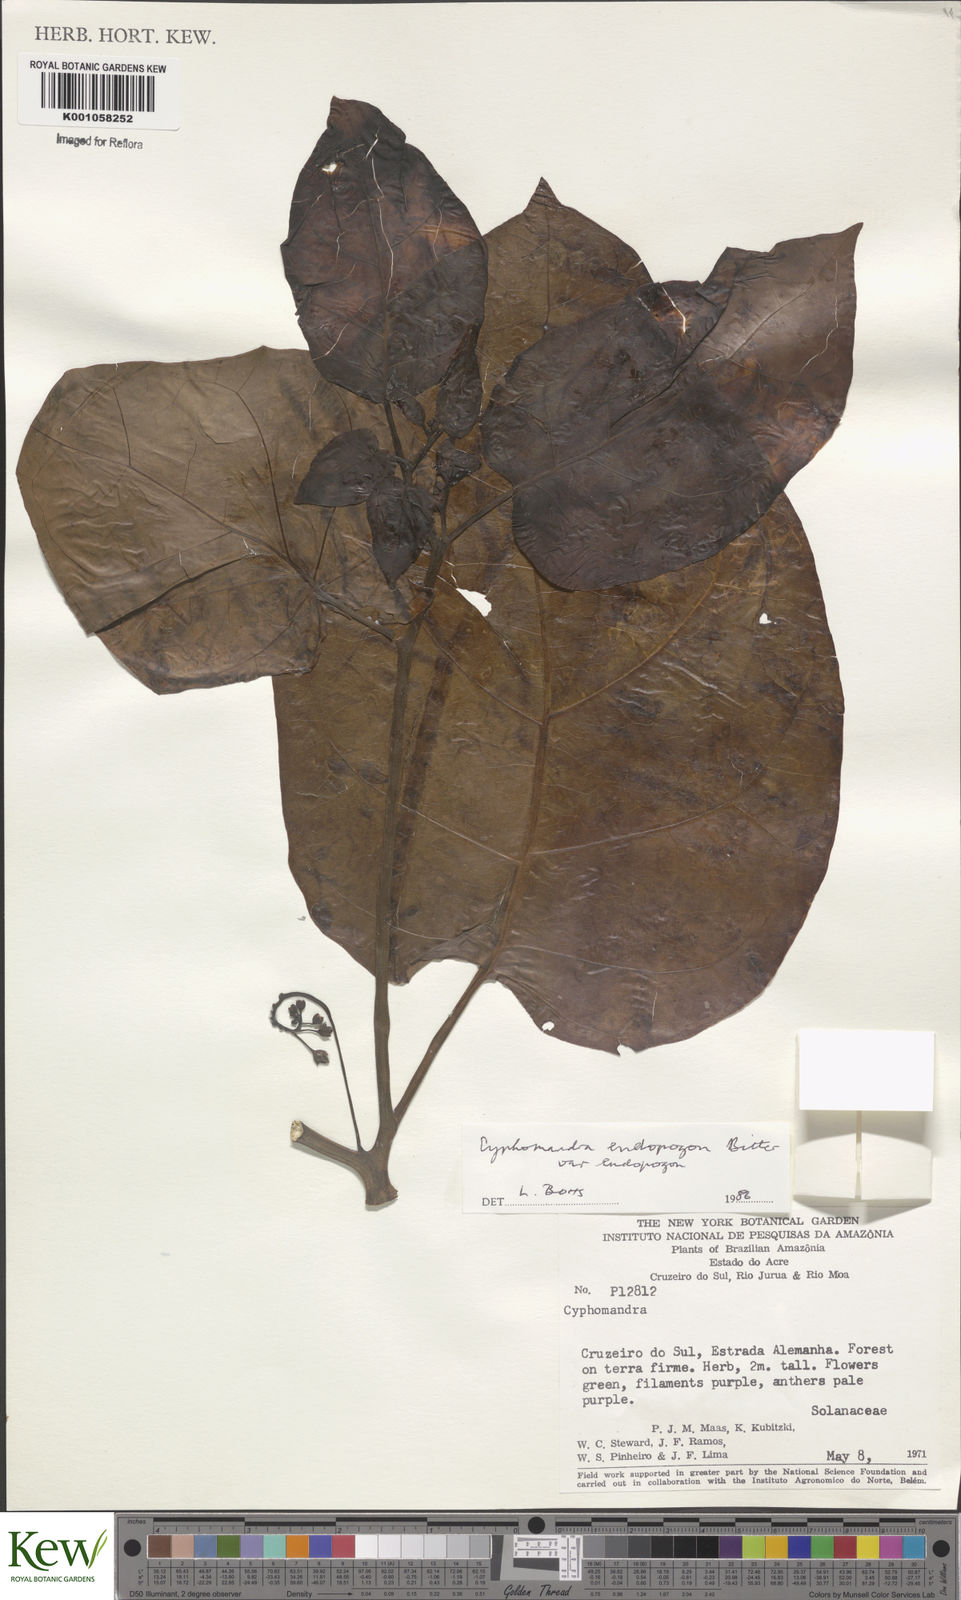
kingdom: Plantae
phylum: Tracheophyta
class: Magnoliopsida
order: Solanales
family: Solanaceae
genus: Solanum
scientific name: Solanum endopogon
